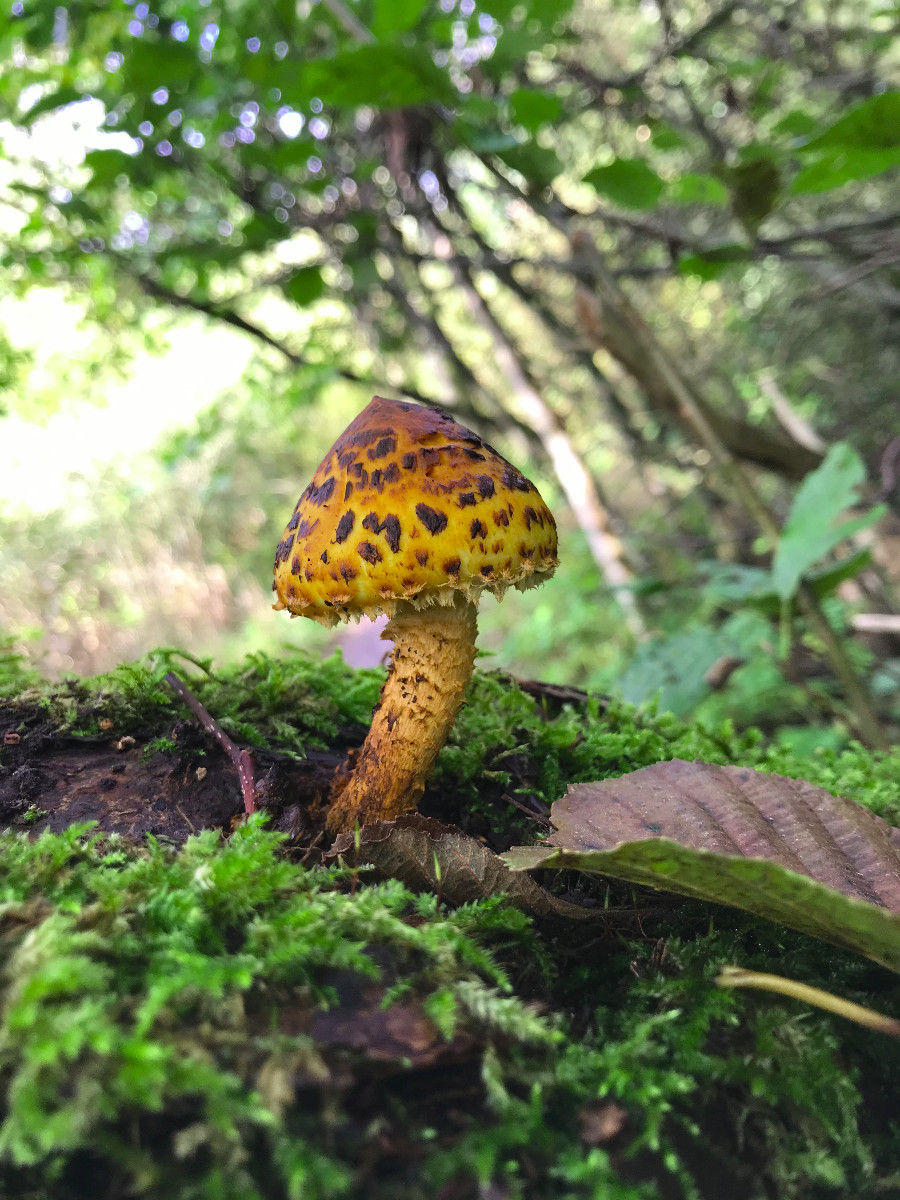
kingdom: Fungi
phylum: Basidiomycota
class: Agaricomycetes
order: Agaricales
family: Strophariaceae
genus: Pholiota
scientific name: Pholiota limonella
